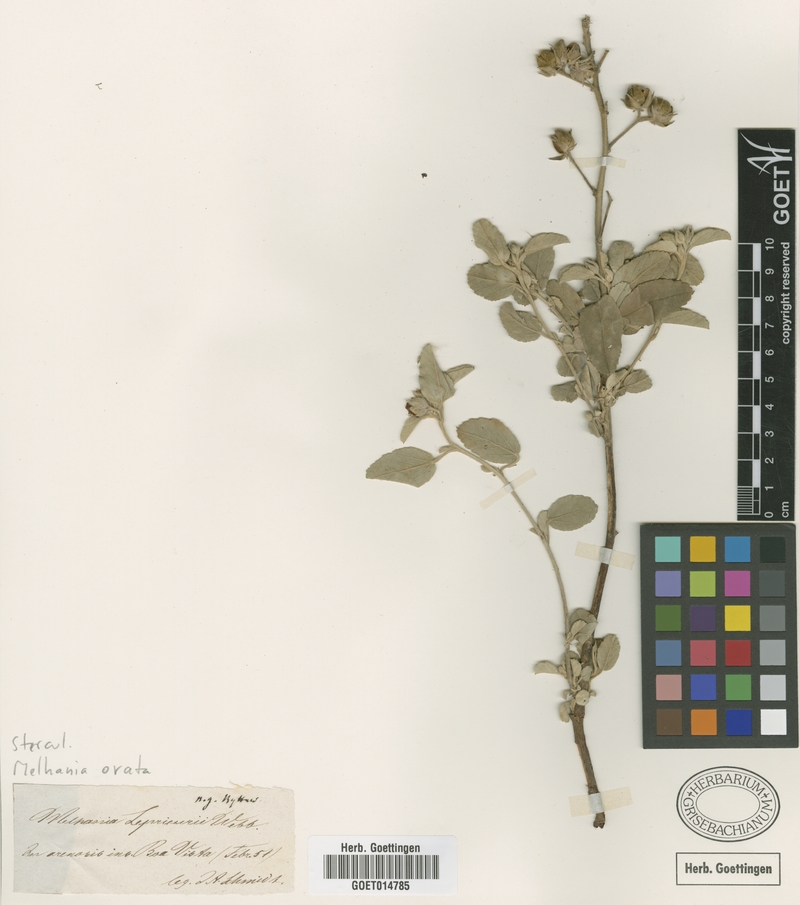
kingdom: Plantae
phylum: Tracheophyta
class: Magnoliopsida
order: Malvales
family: Malvaceae
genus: Melhania
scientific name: Melhania ovata
